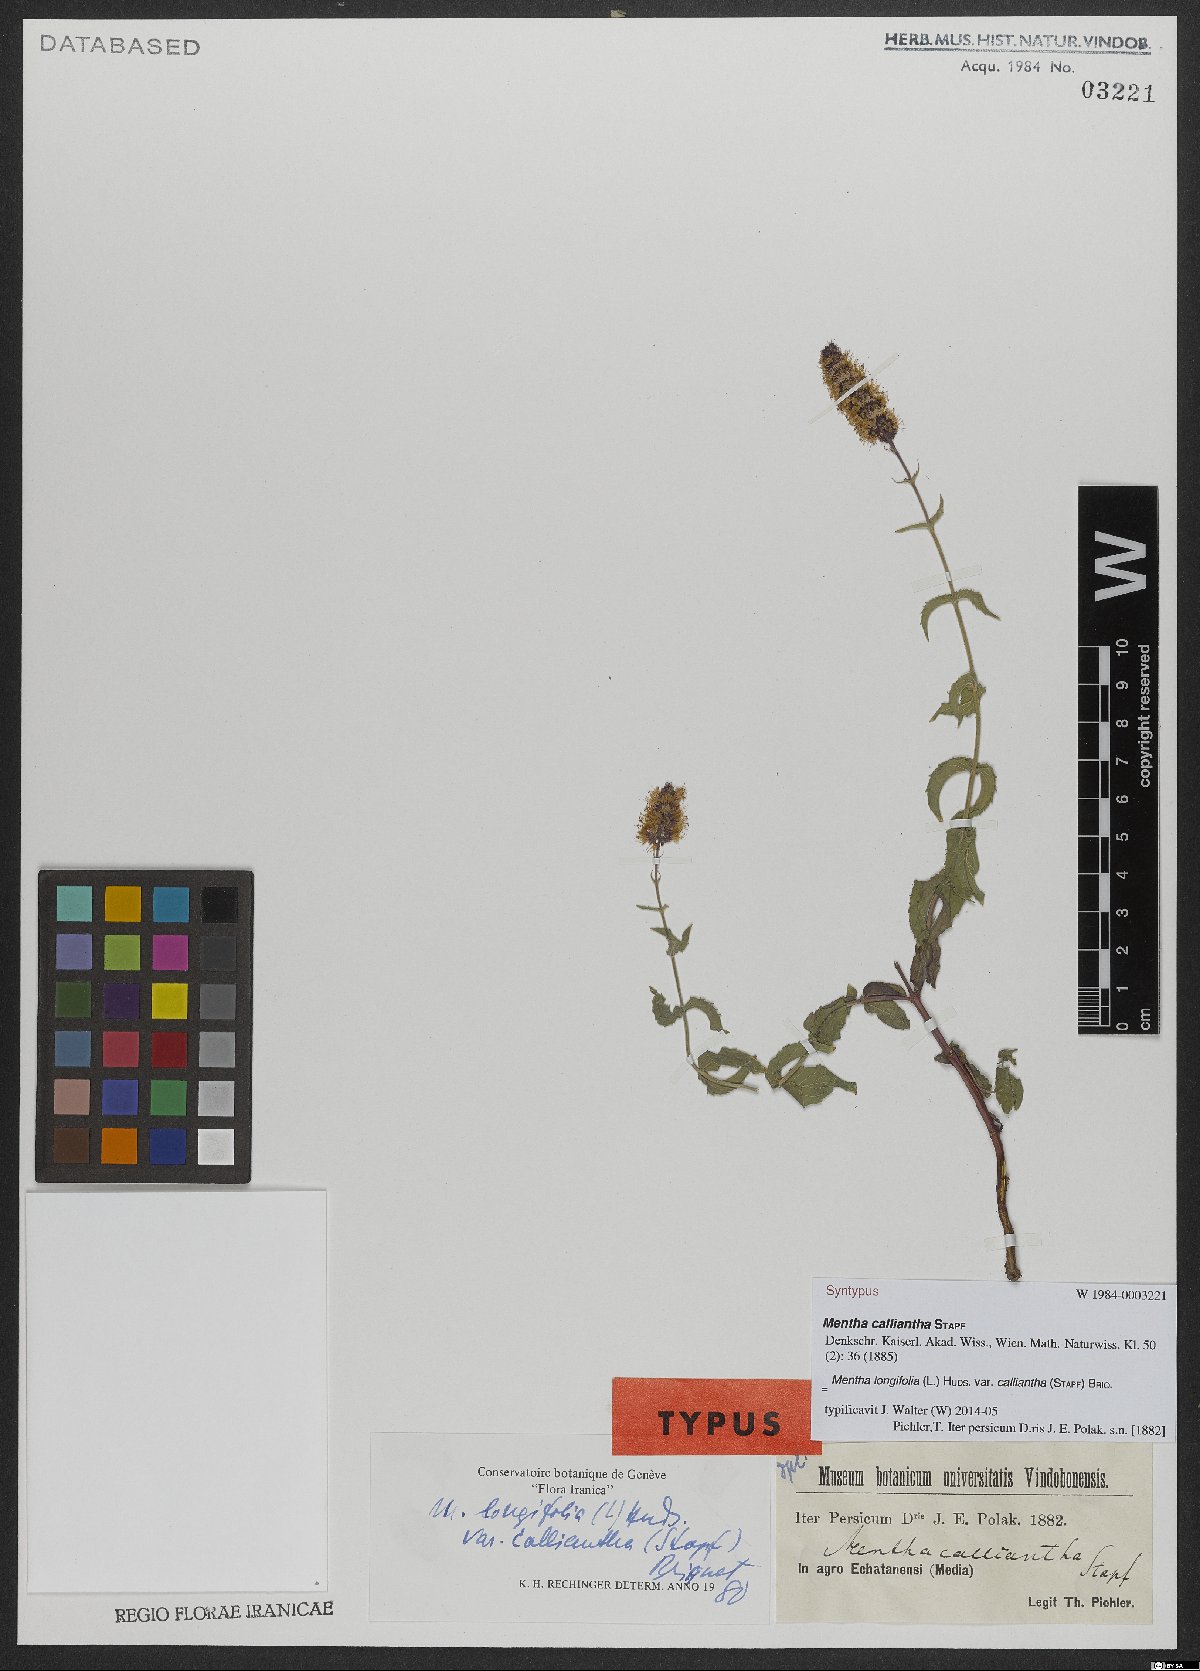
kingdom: Plantae
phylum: Tracheophyta
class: Magnoliopsida
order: Lamiales
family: Lamiaceae
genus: Mentha
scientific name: Mentha longifolia
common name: Horse mint
